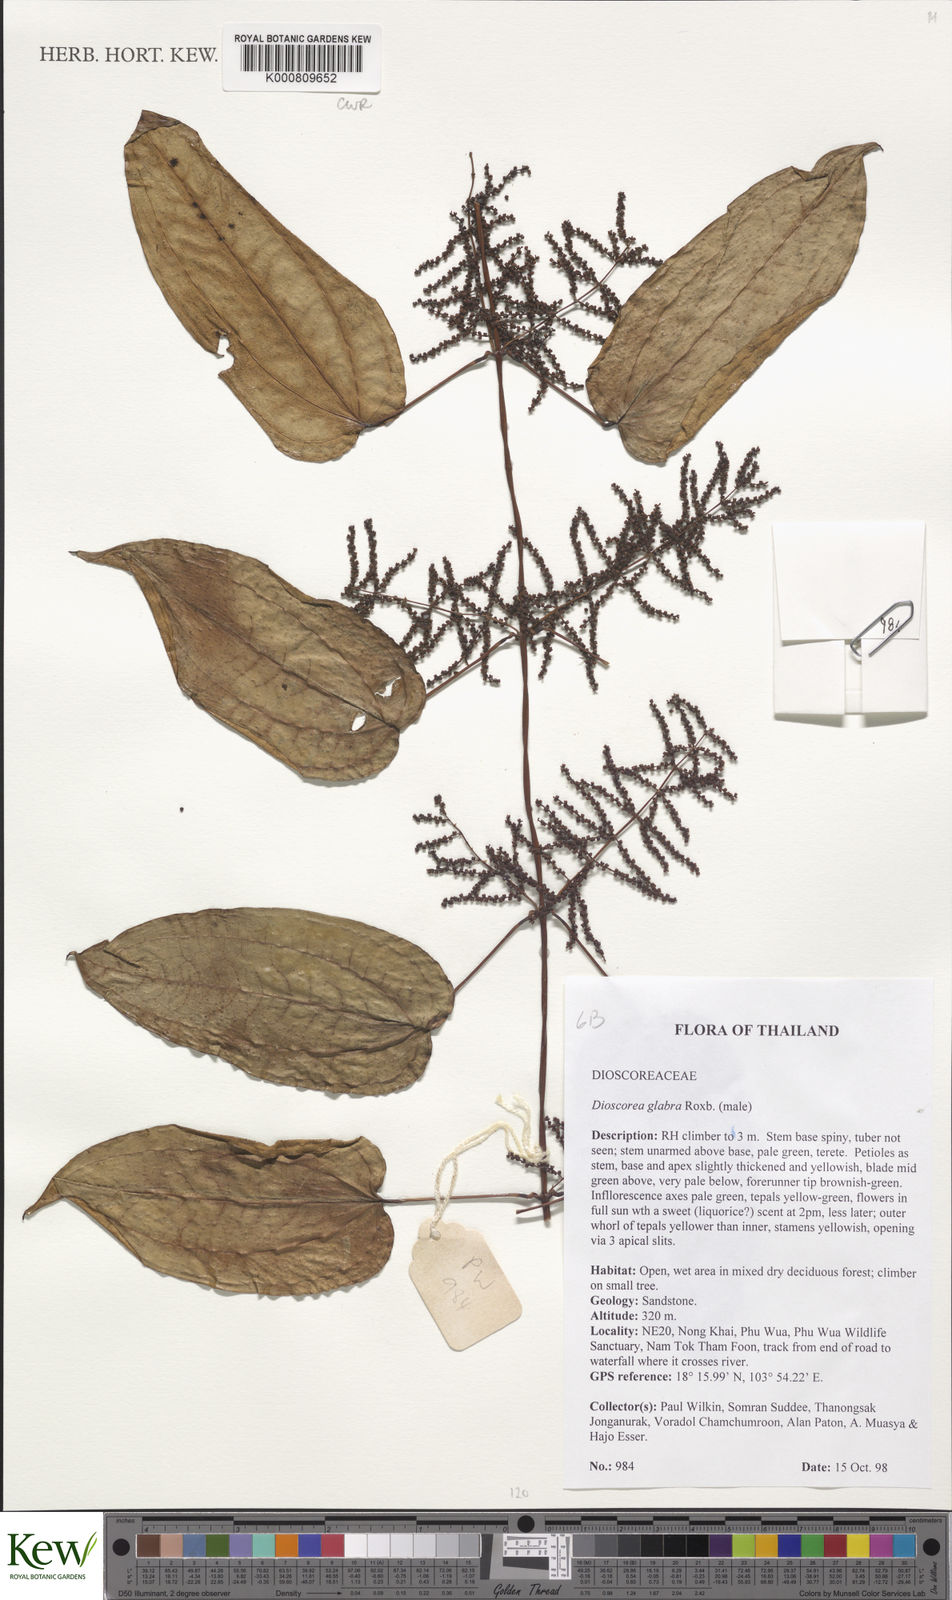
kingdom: Plantae
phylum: Tracheophyta
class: Liliopsida
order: Dioscoreales
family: Dioscoreaceae
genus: Dioscorea
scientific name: Dioscorea glabra
